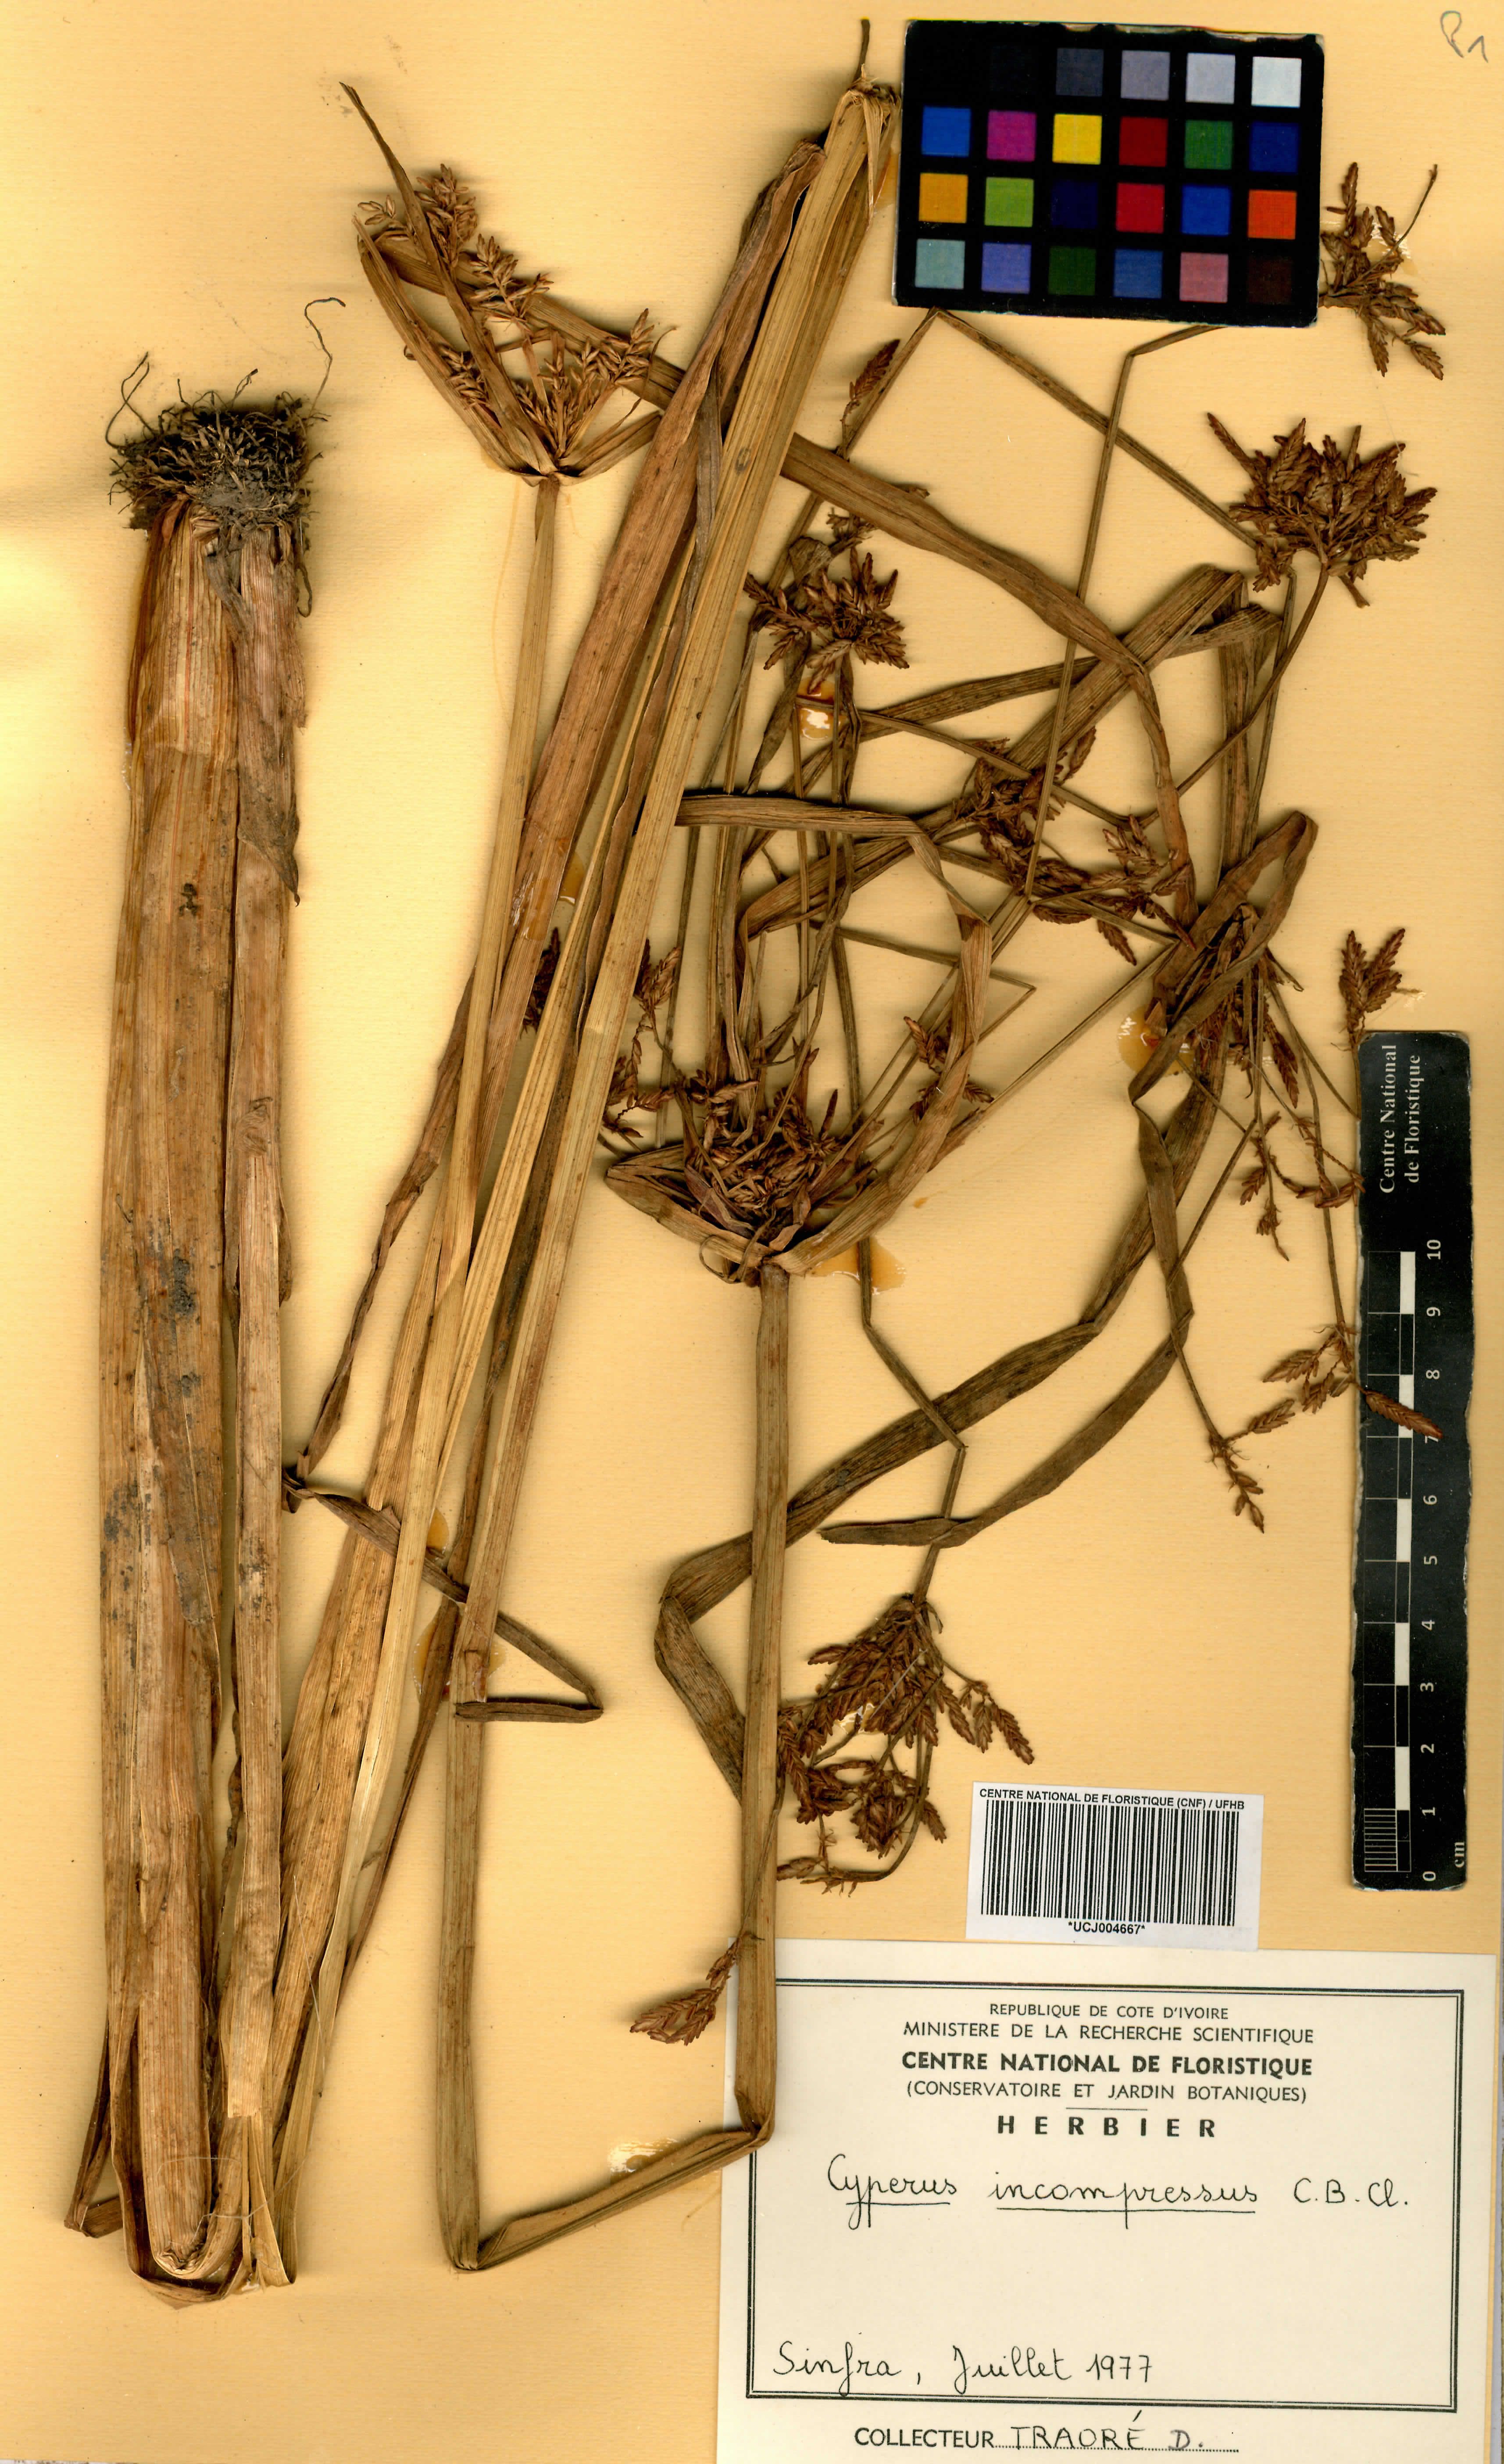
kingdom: Plantae
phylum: Tracheophyta
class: Liliopsida
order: Poales
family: Cyperaceae
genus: Cyperus
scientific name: Cyperus incompressus
